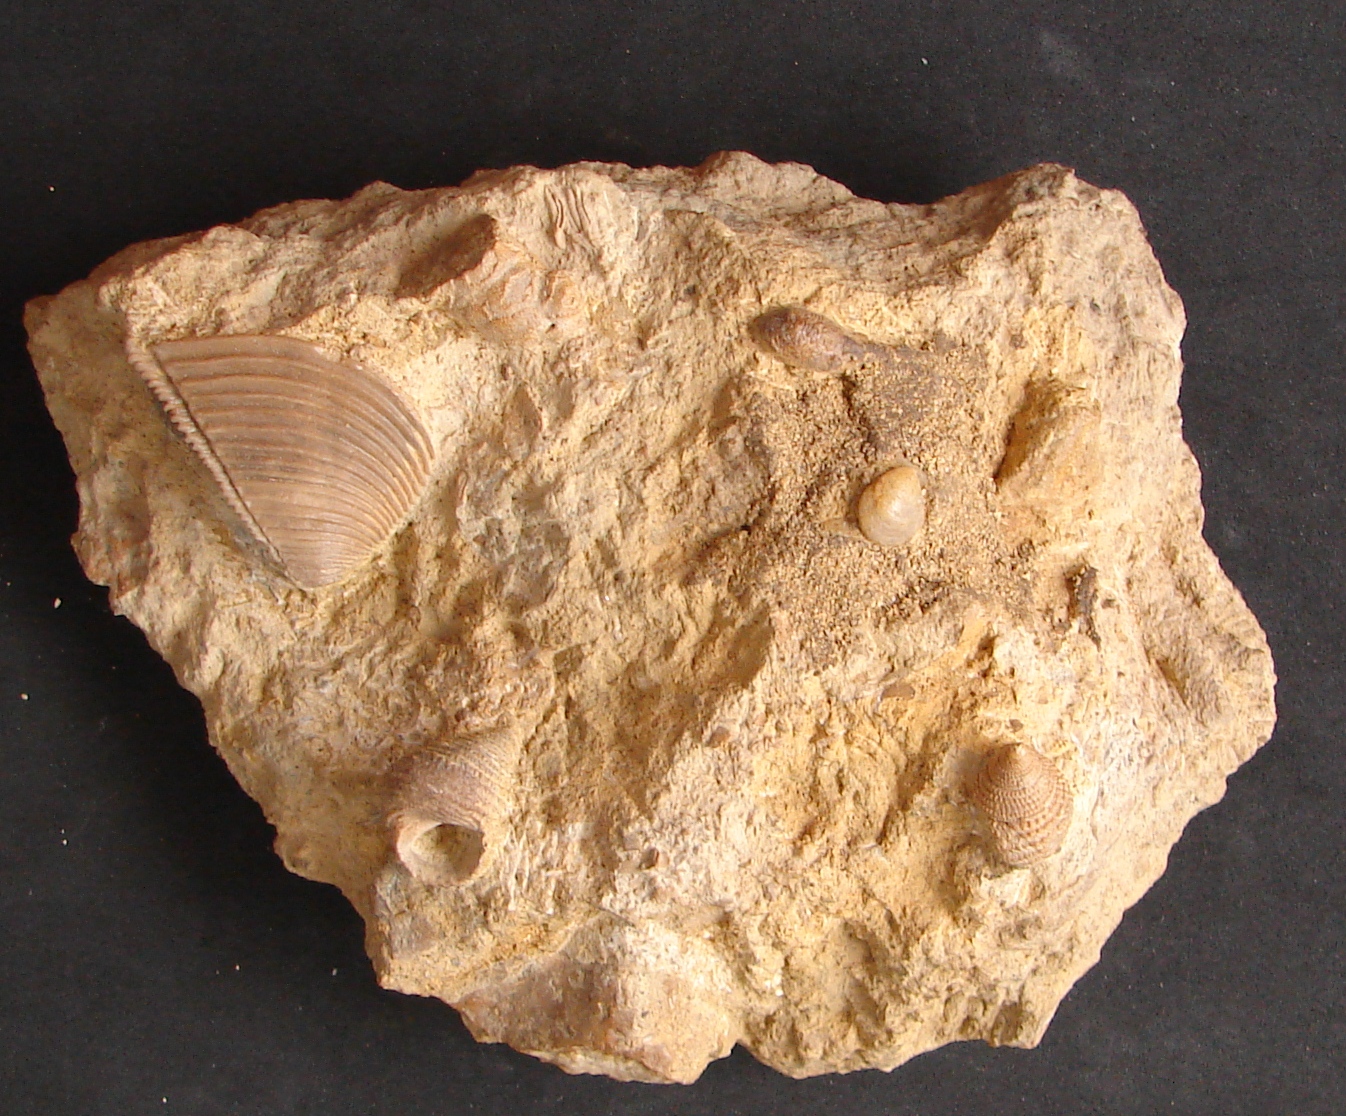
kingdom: Animalia
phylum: Mollusca
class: Gastropoda
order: Seguenziida
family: Eucyclidae
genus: Ooliticia
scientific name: Ooliticia
